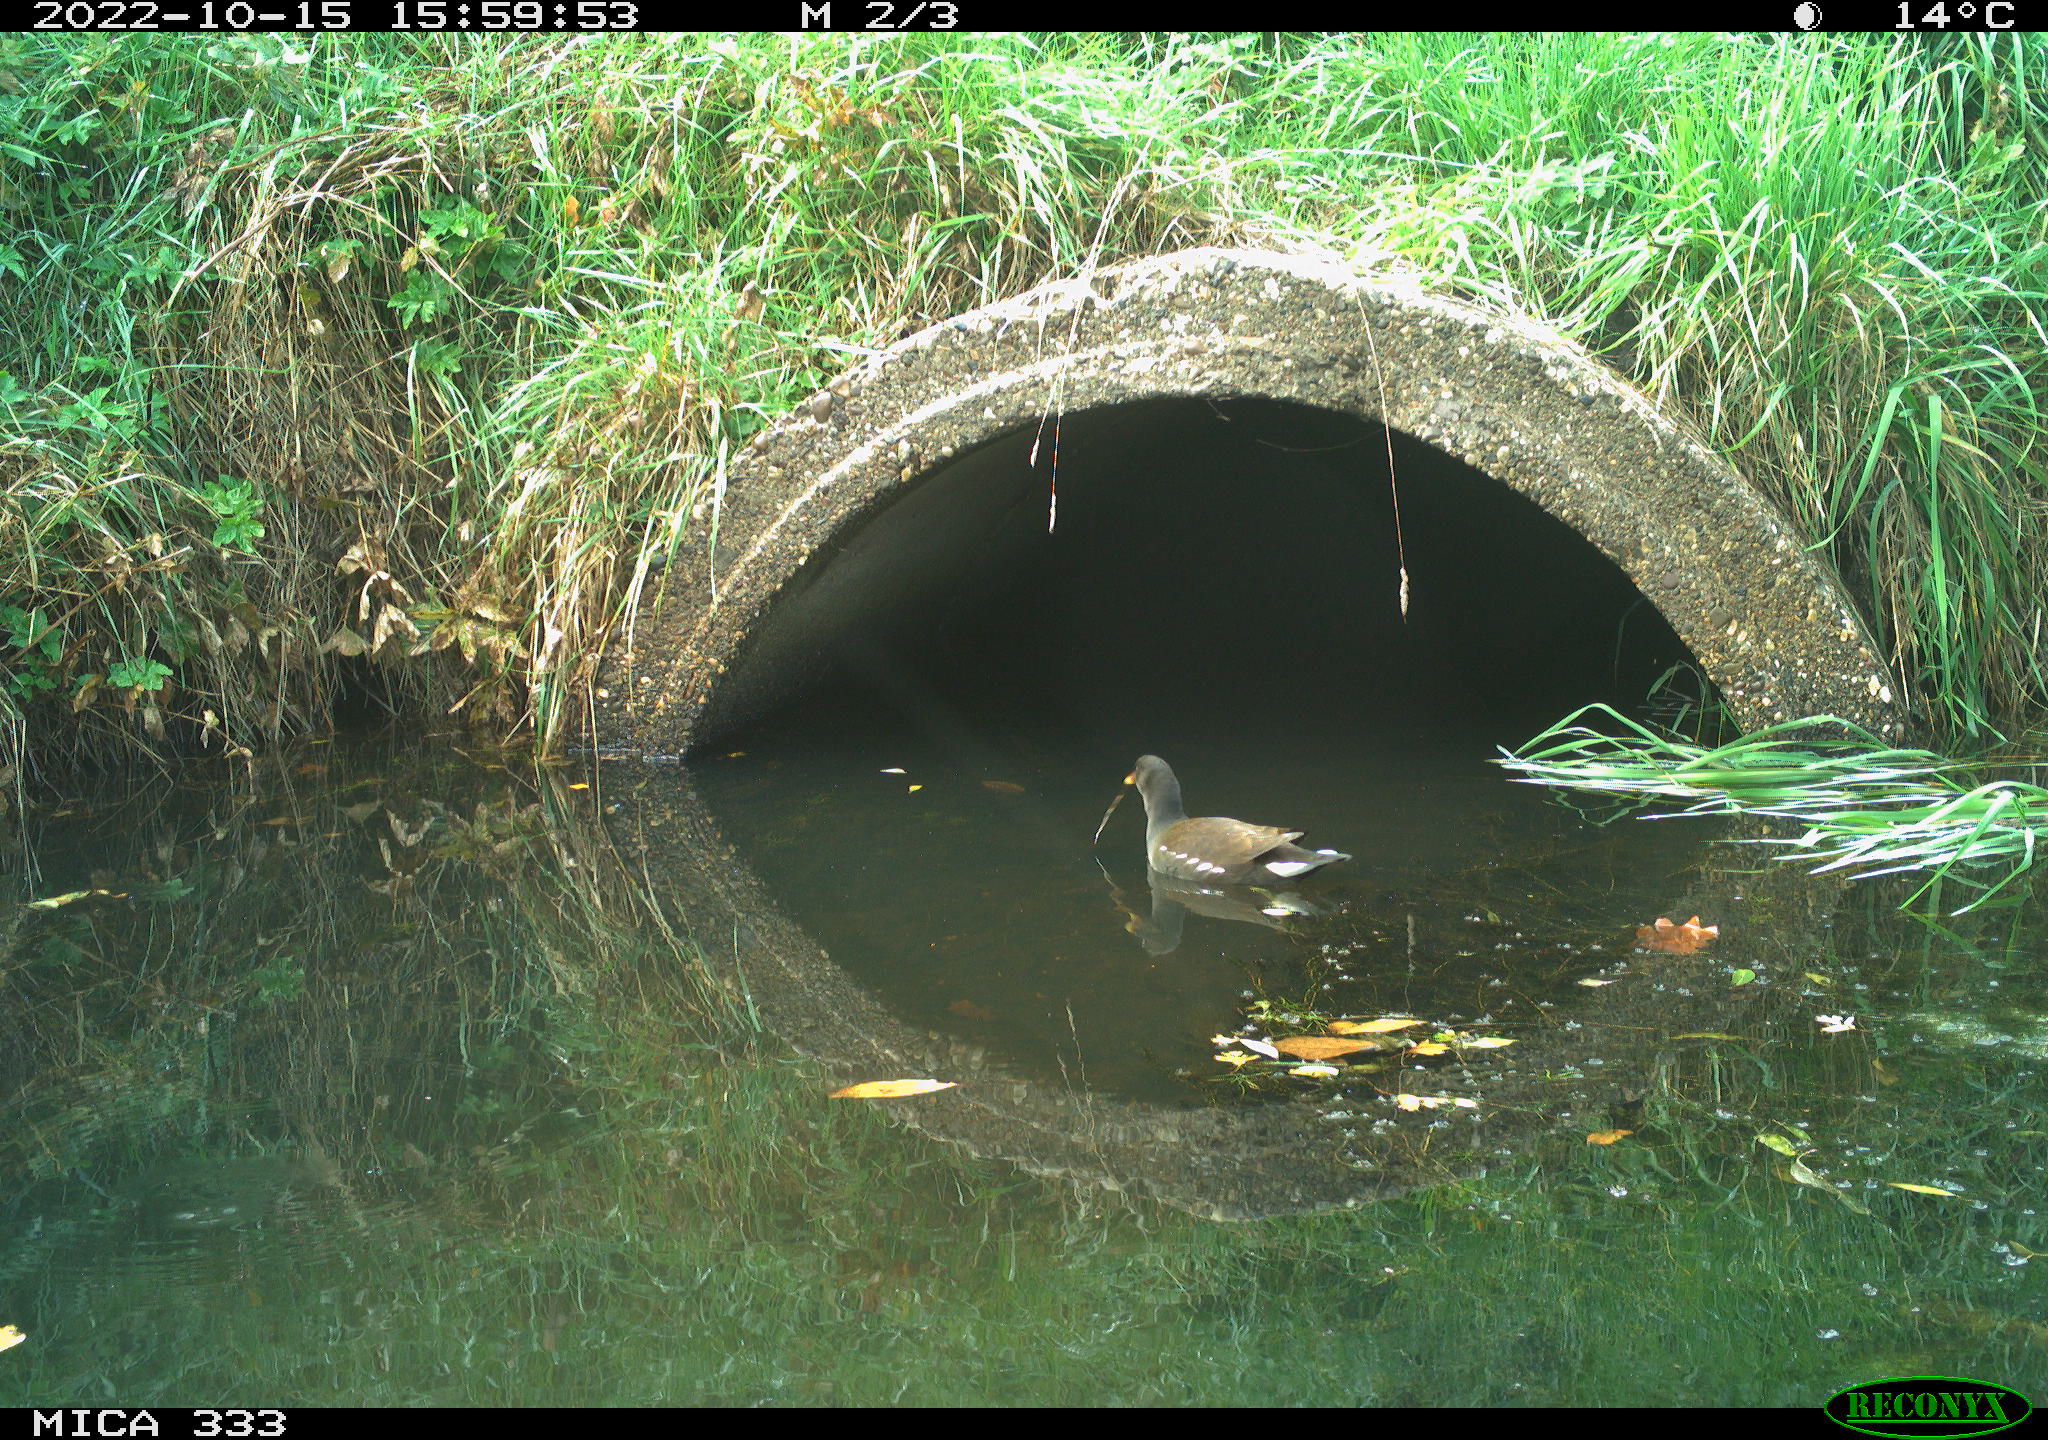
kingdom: Animalia
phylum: Chordata
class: Aves
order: Gruiformes
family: Rallidae
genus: Gallinula
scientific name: Gallinula chloropus
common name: Common moorhen
